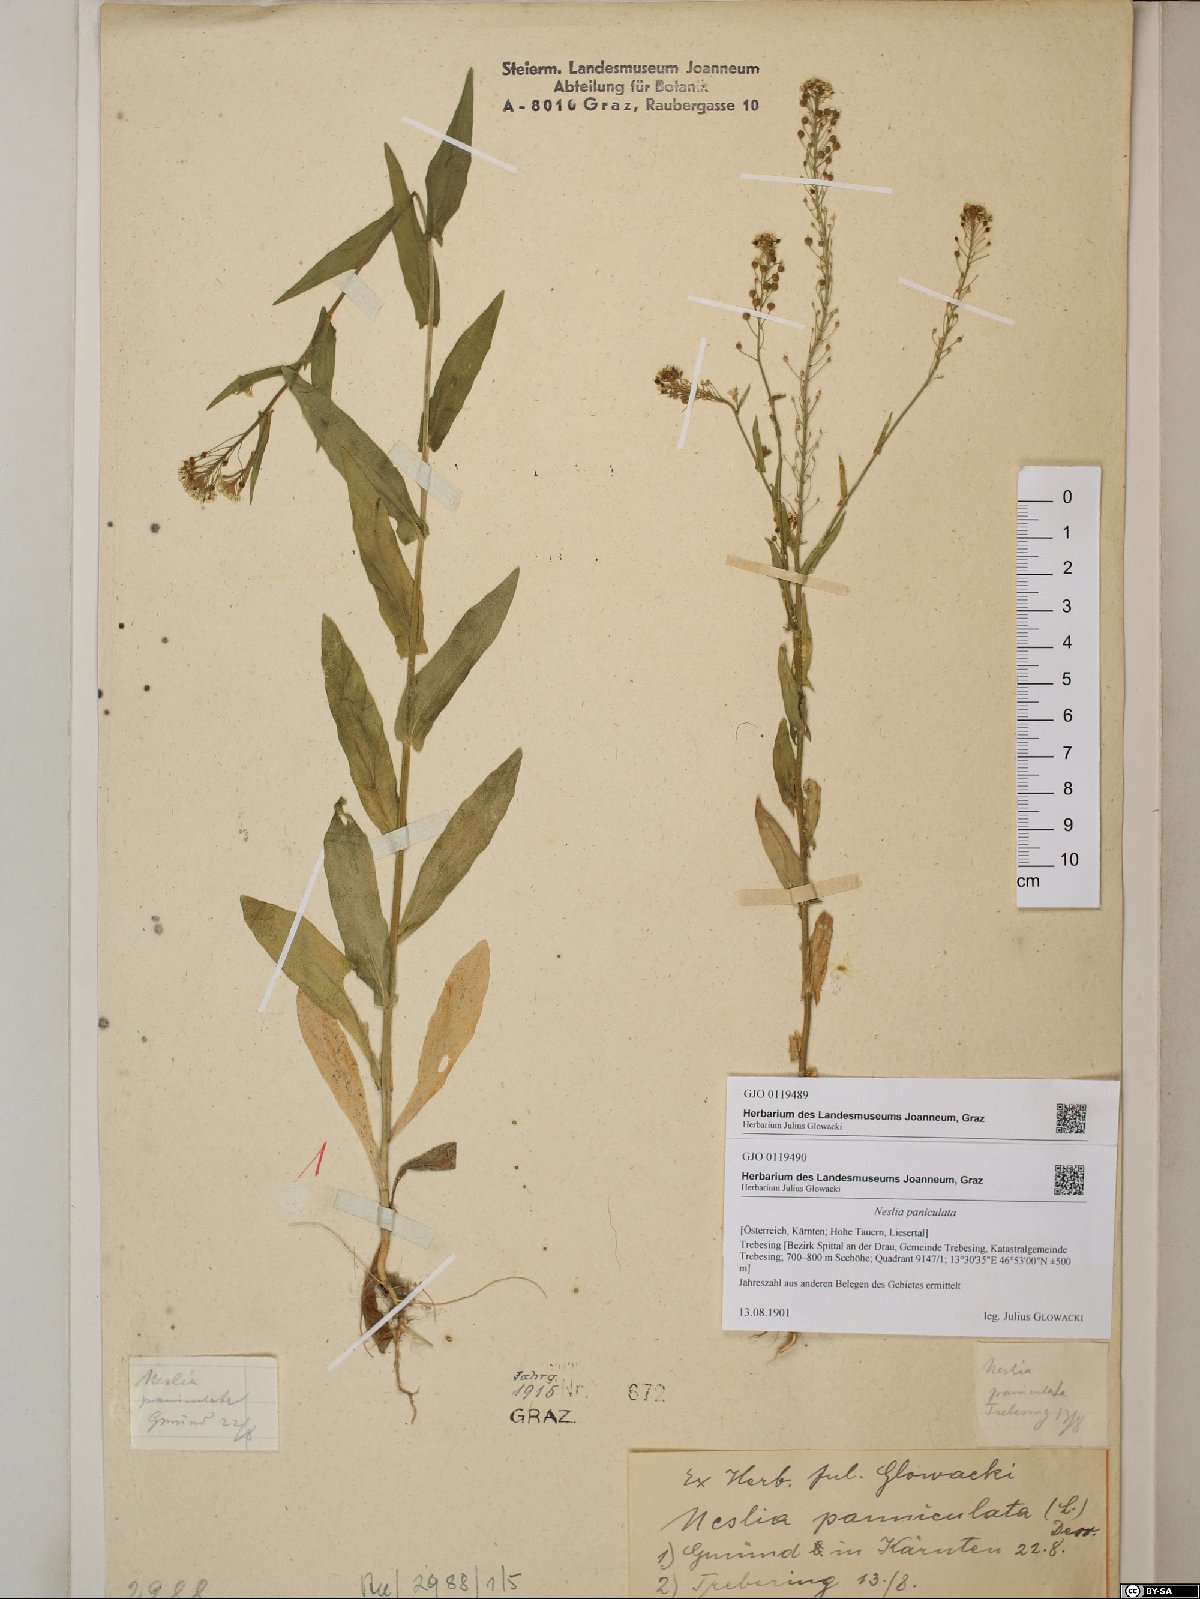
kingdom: Plantae
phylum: Tracheophyta
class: Magnoliopsida
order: Brassicales
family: Brassicaceae
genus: Neslia
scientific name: Neslia paniculata
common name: Ball mustard
